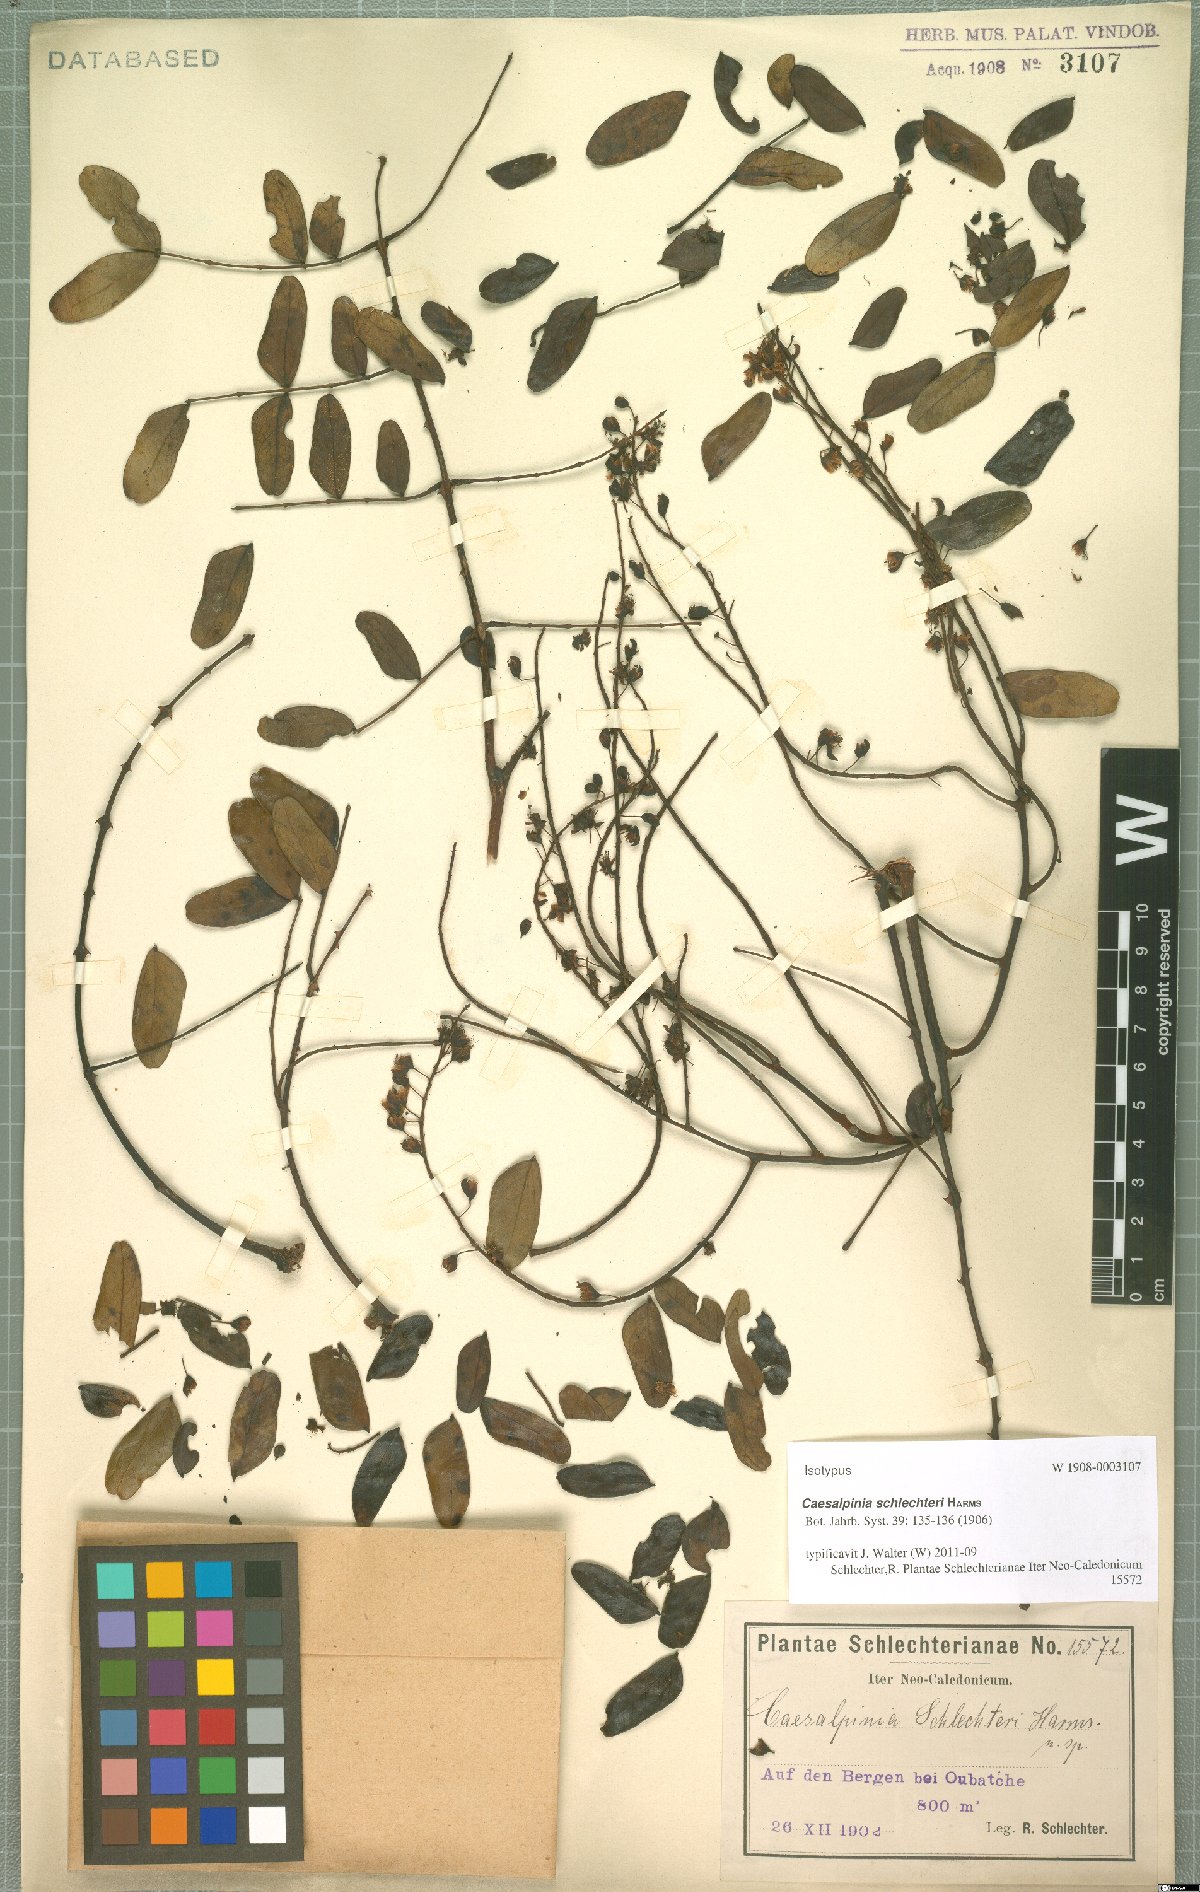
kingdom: Plantae
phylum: Tracheophyta
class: Magnoliopsida
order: Fabales
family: Fabaceae
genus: Mezoneuron
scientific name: Mezoneuron schlechteri
